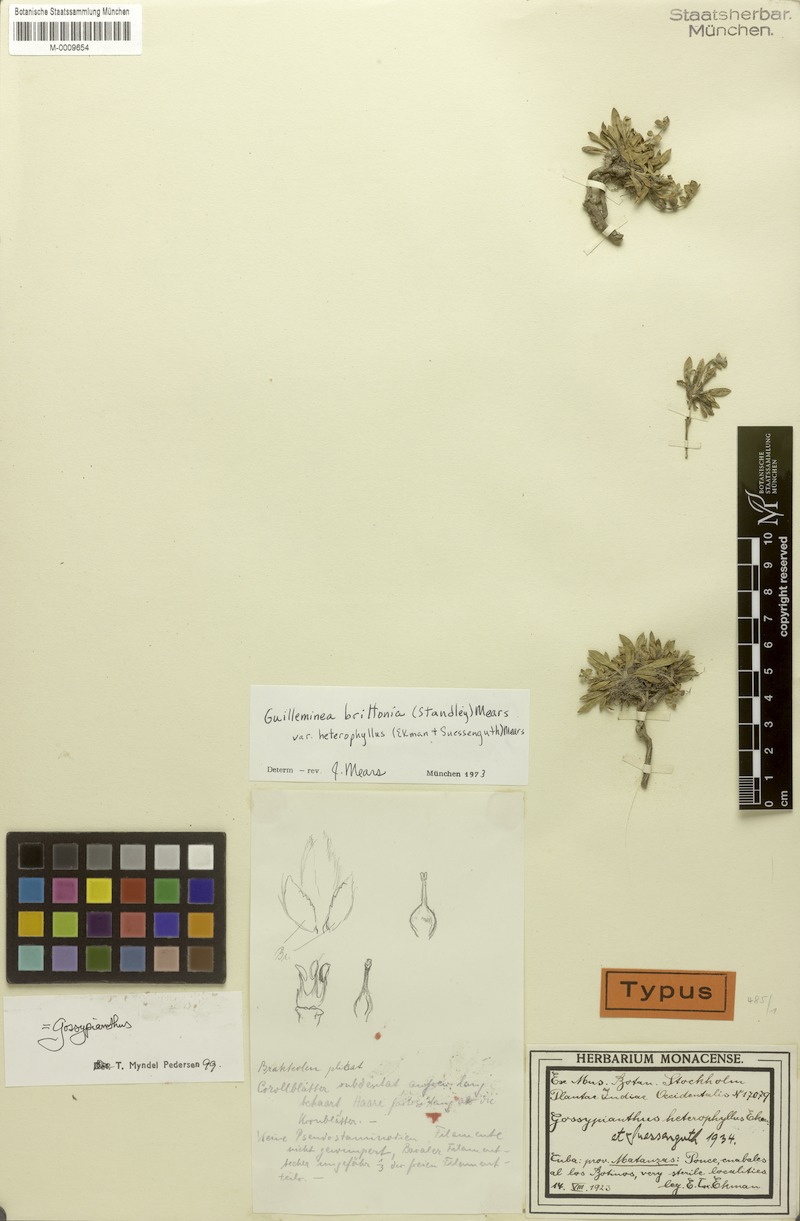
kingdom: Plantae
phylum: Tracheophyta
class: Magnoliopsida
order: Caryophyllales
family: Amaranthaceae
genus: Gomphrena
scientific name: Gomphrena brittonii
